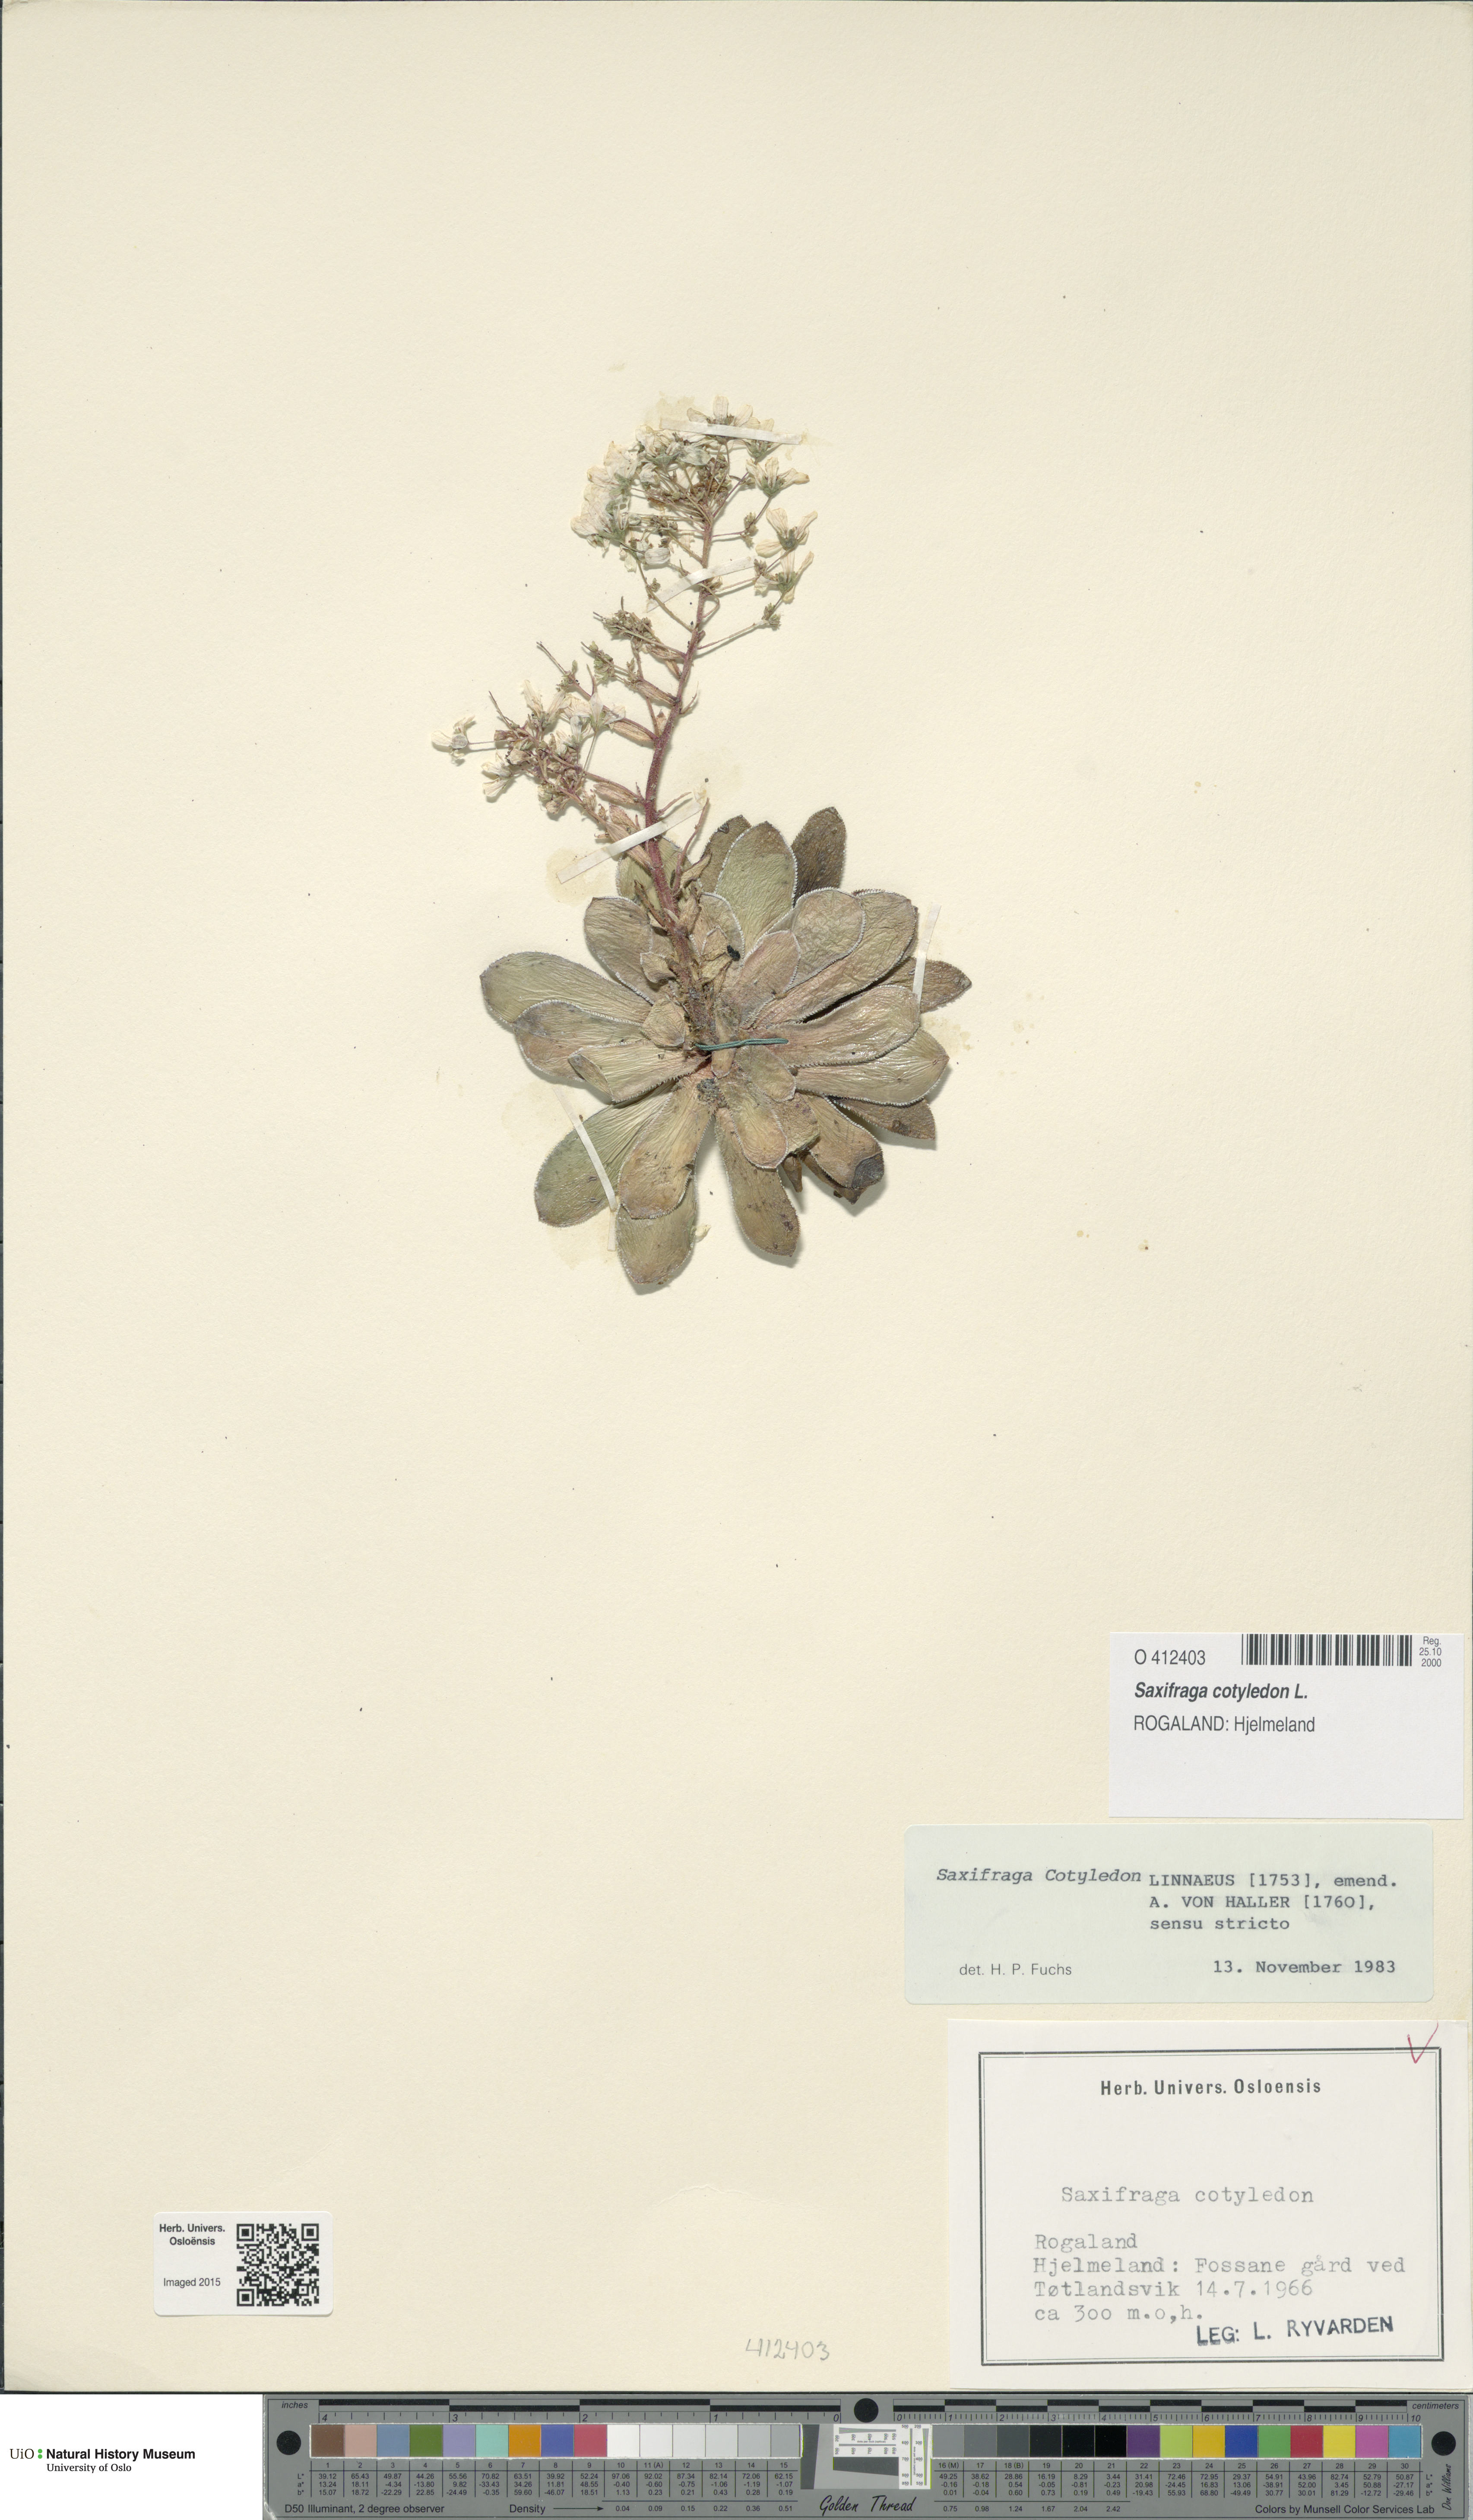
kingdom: Plantae
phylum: Tracheophyta
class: Magnoliopsida
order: Saxifragales
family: Saxifragaceae
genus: Saxifraga
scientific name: Saxifraga cotyledon
